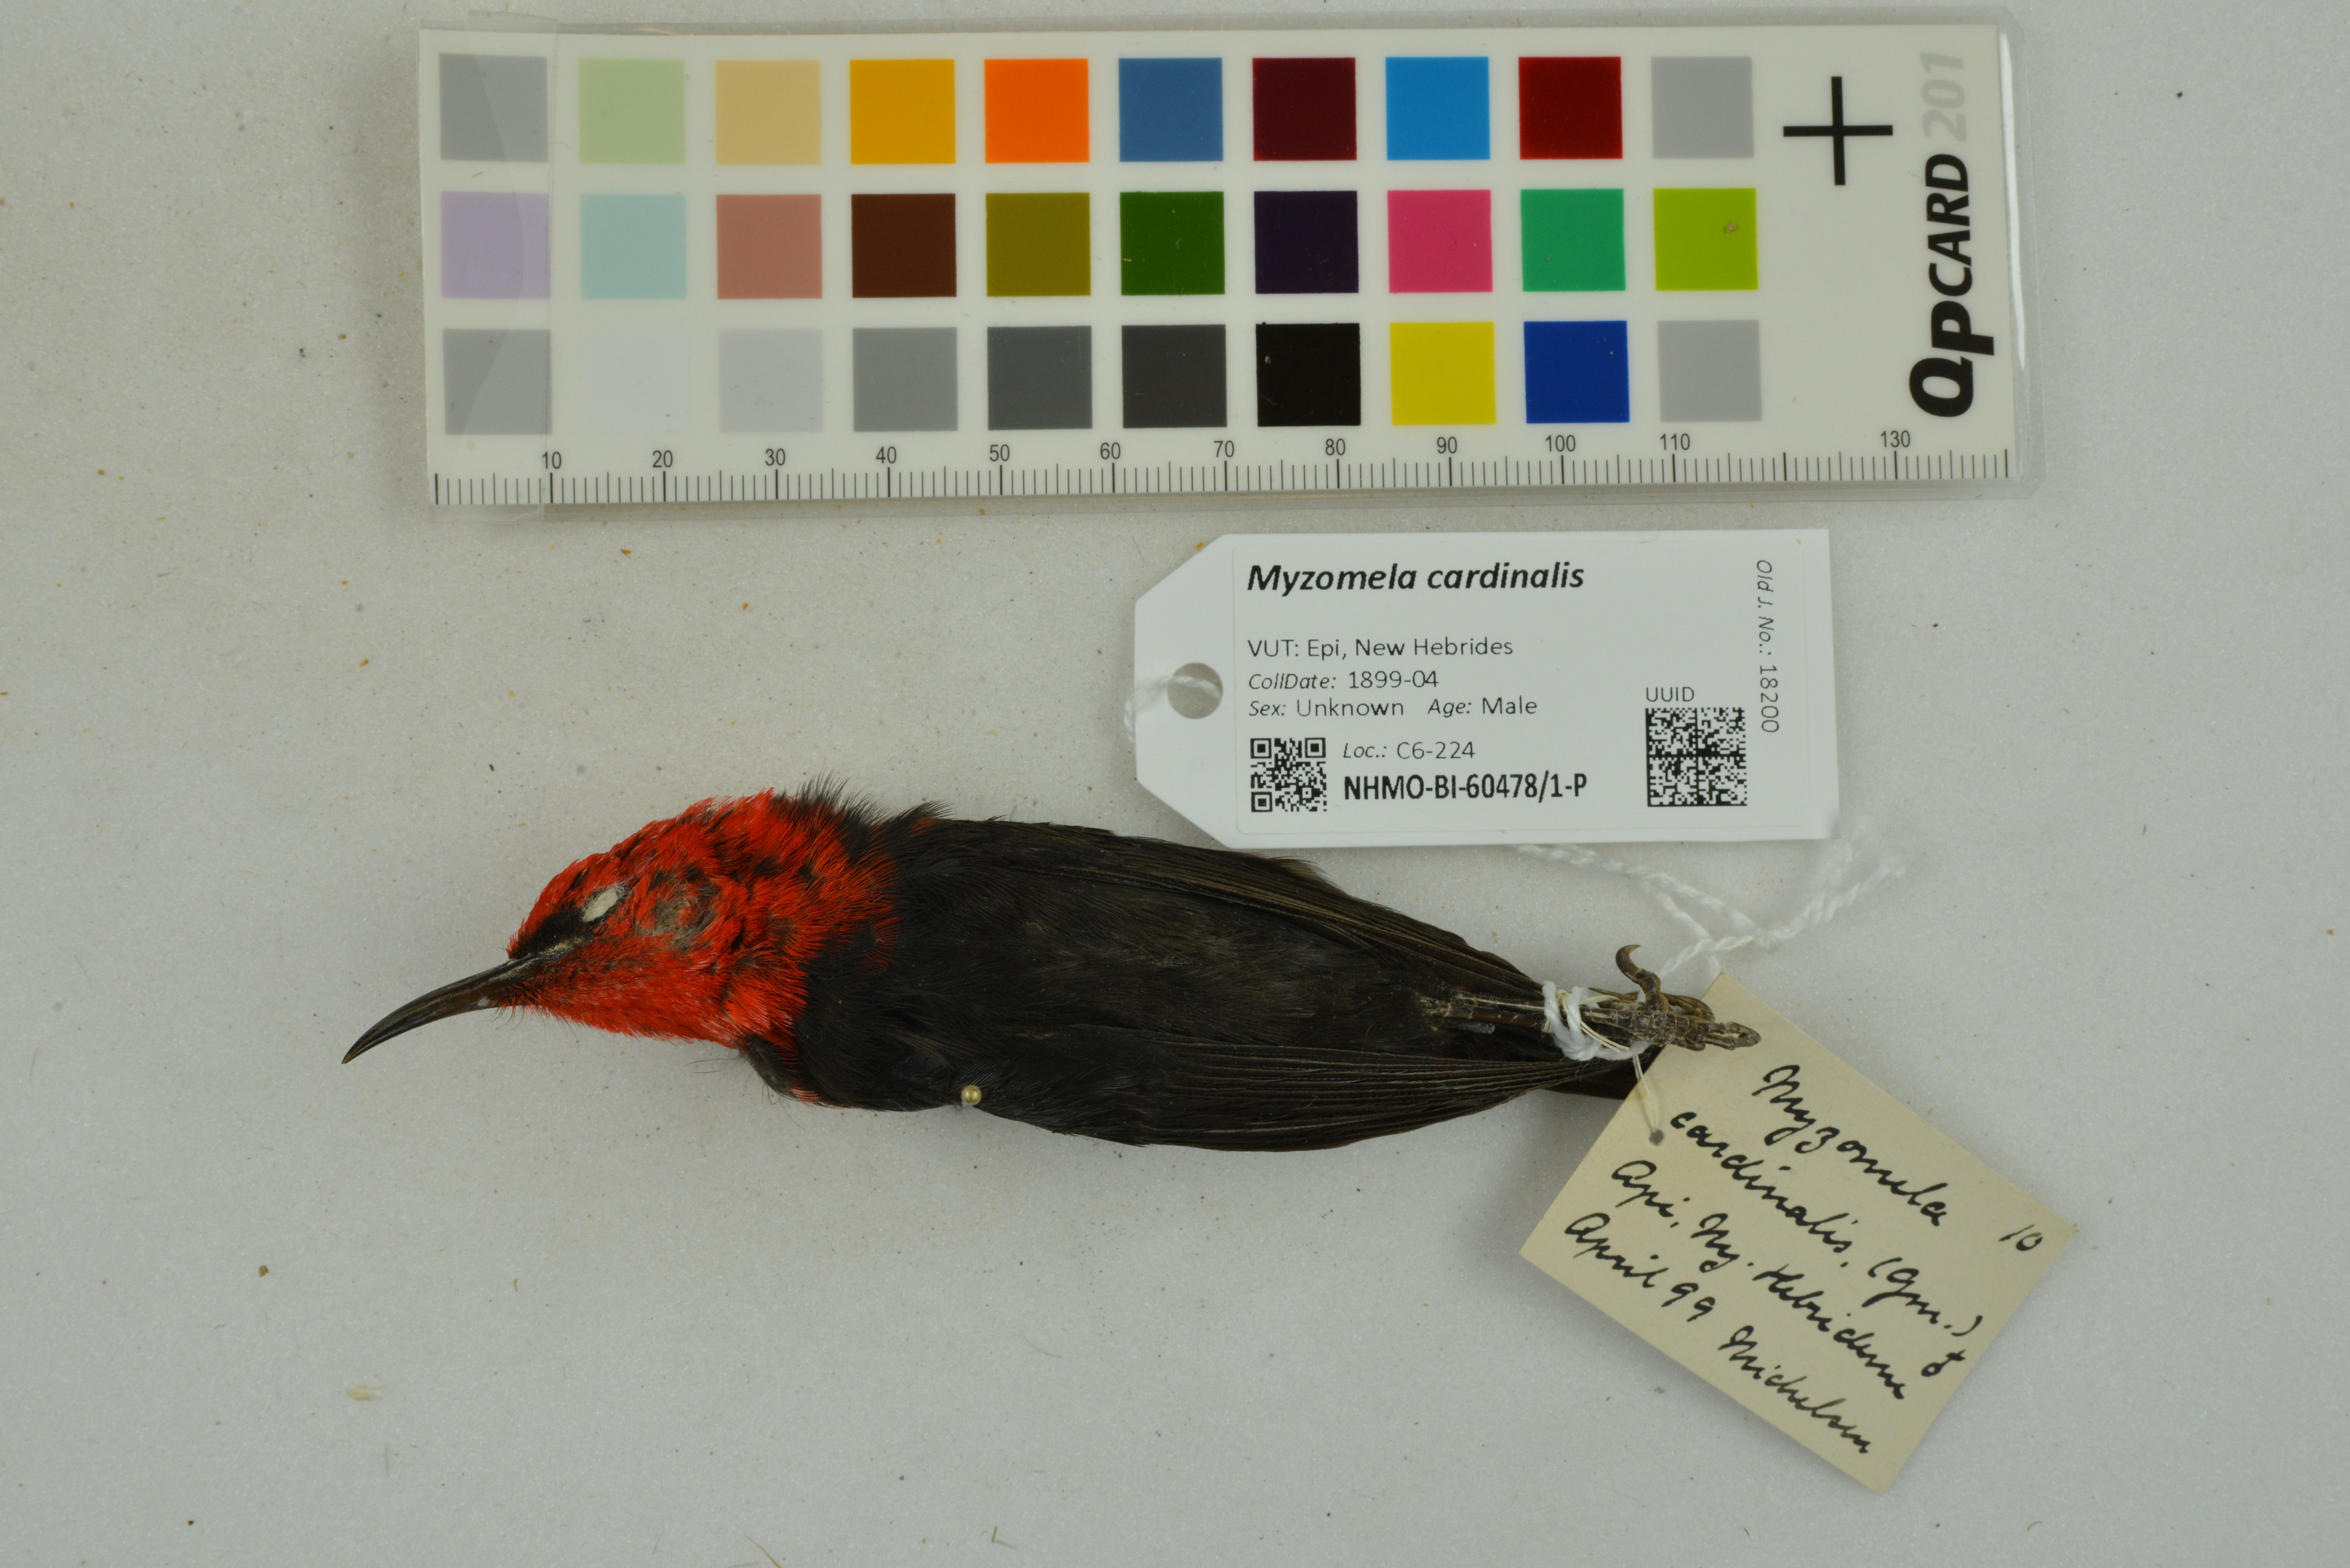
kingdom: Animalia
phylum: Chordata
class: Aves
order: Passeriformes
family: Meliphagidae
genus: Myzomela
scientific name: Myzomela cardinalis
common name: Cardinal myzomela
